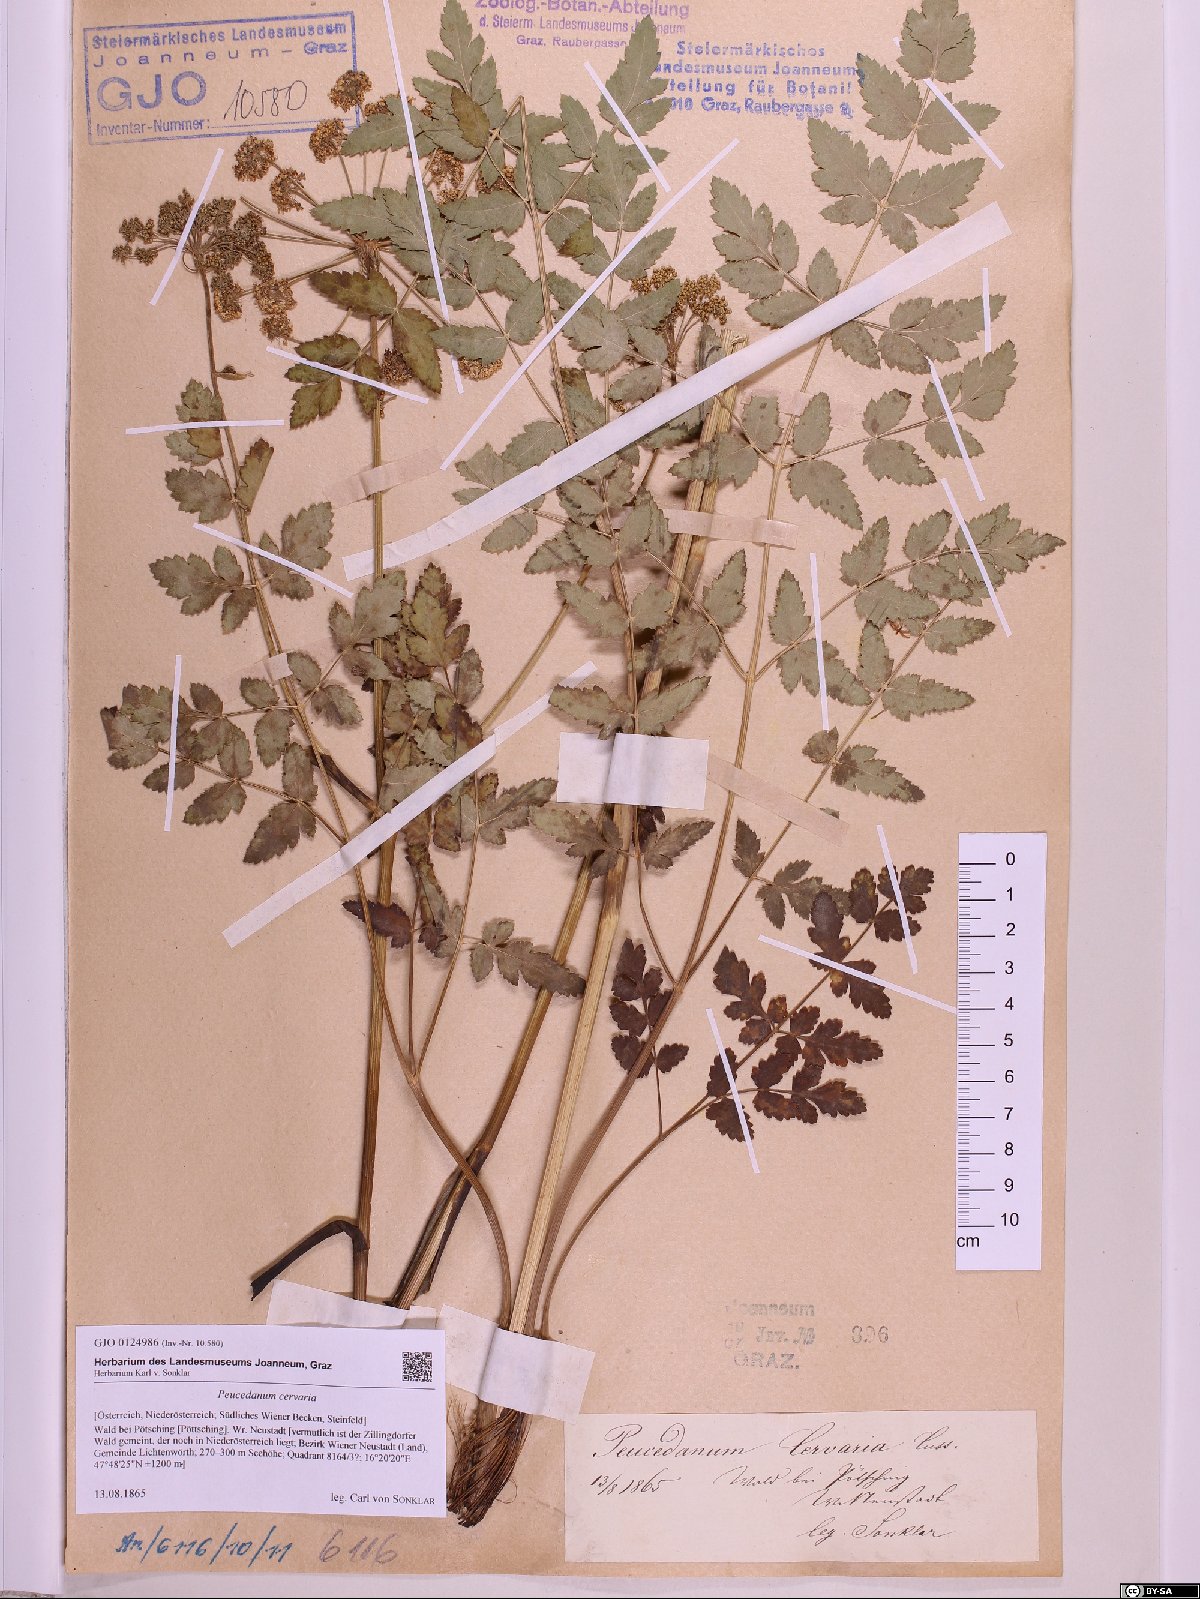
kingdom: Plantae
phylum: Tracheophyta
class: Magnoliopsida
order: Apiales
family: Apiaceae
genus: Cervaria
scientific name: Cervaria rivini
